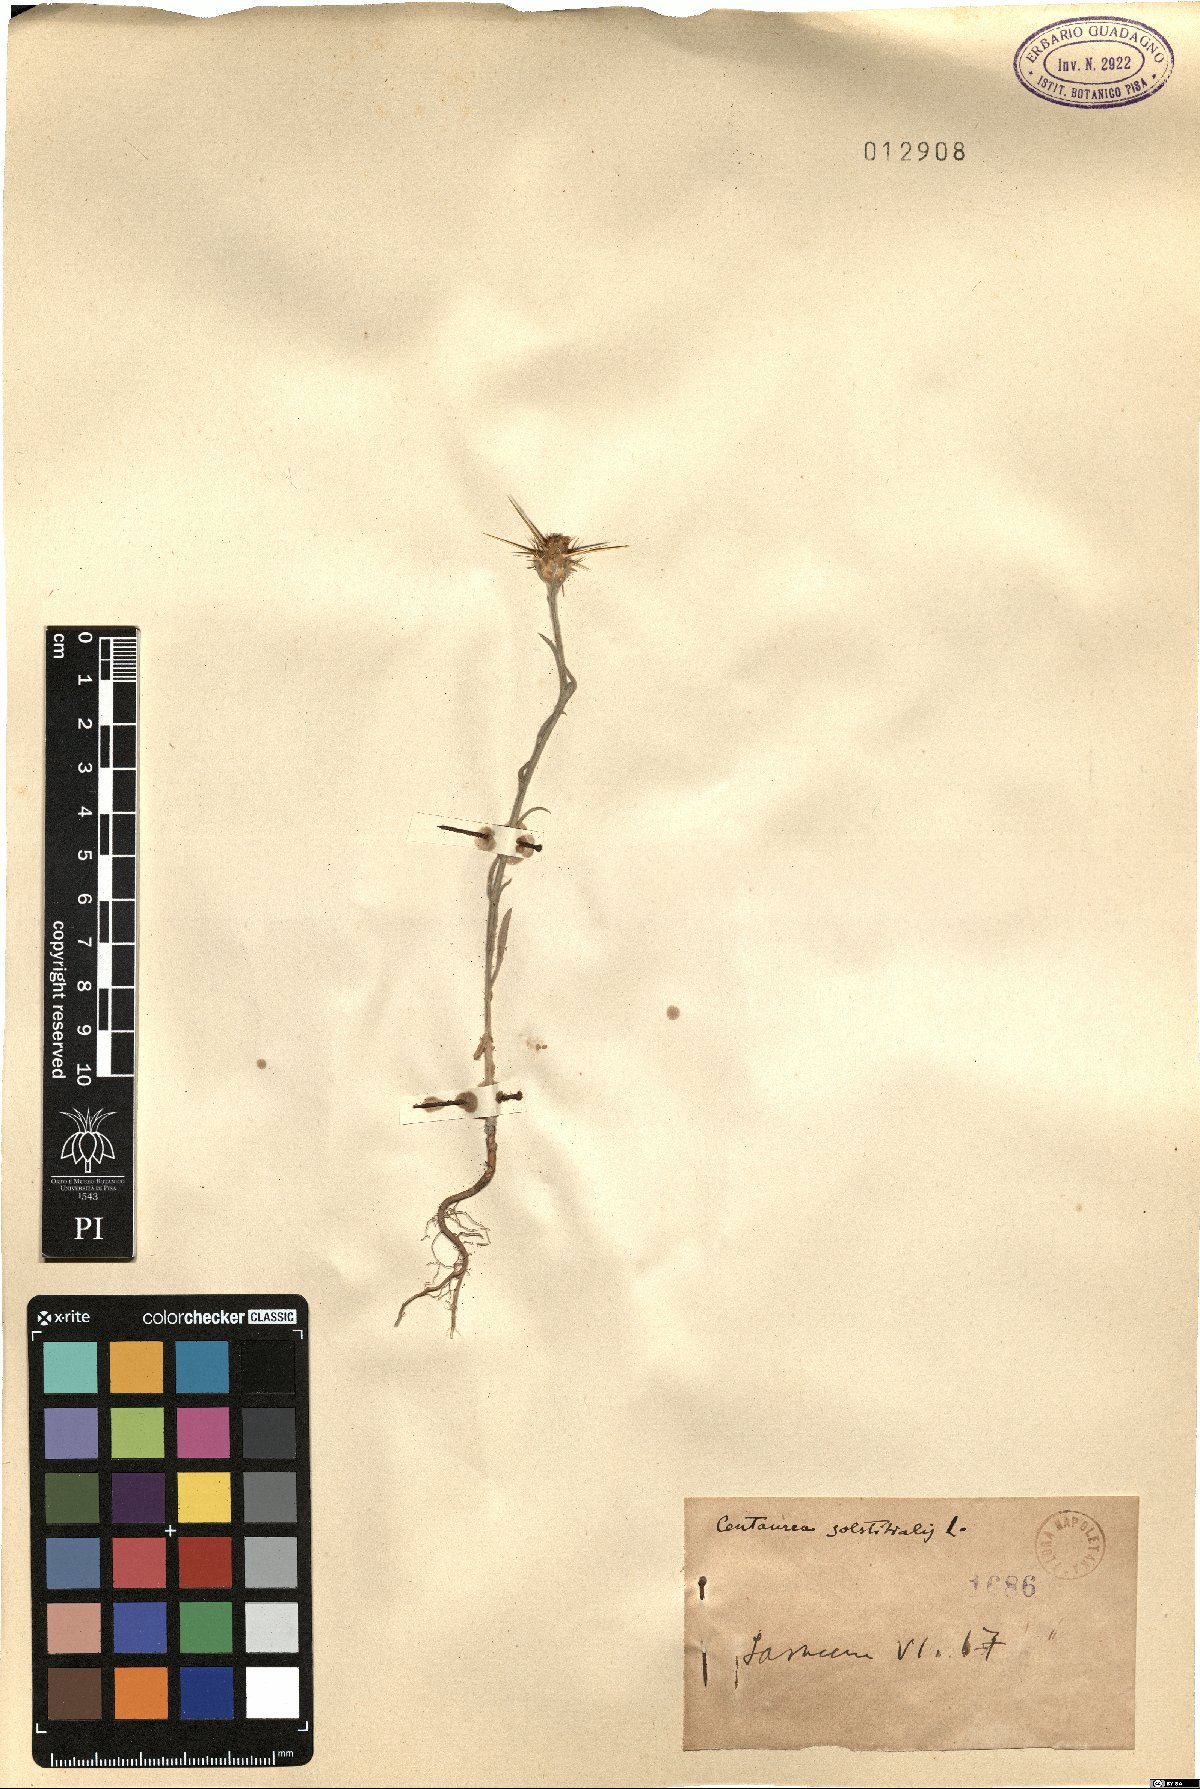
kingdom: Plantae
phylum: Tracheophyta
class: Magnoliopsida
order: Asterales
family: Asteraceae
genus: Centaurea
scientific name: Centaurea solstitialis
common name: Yellow star-thistle
